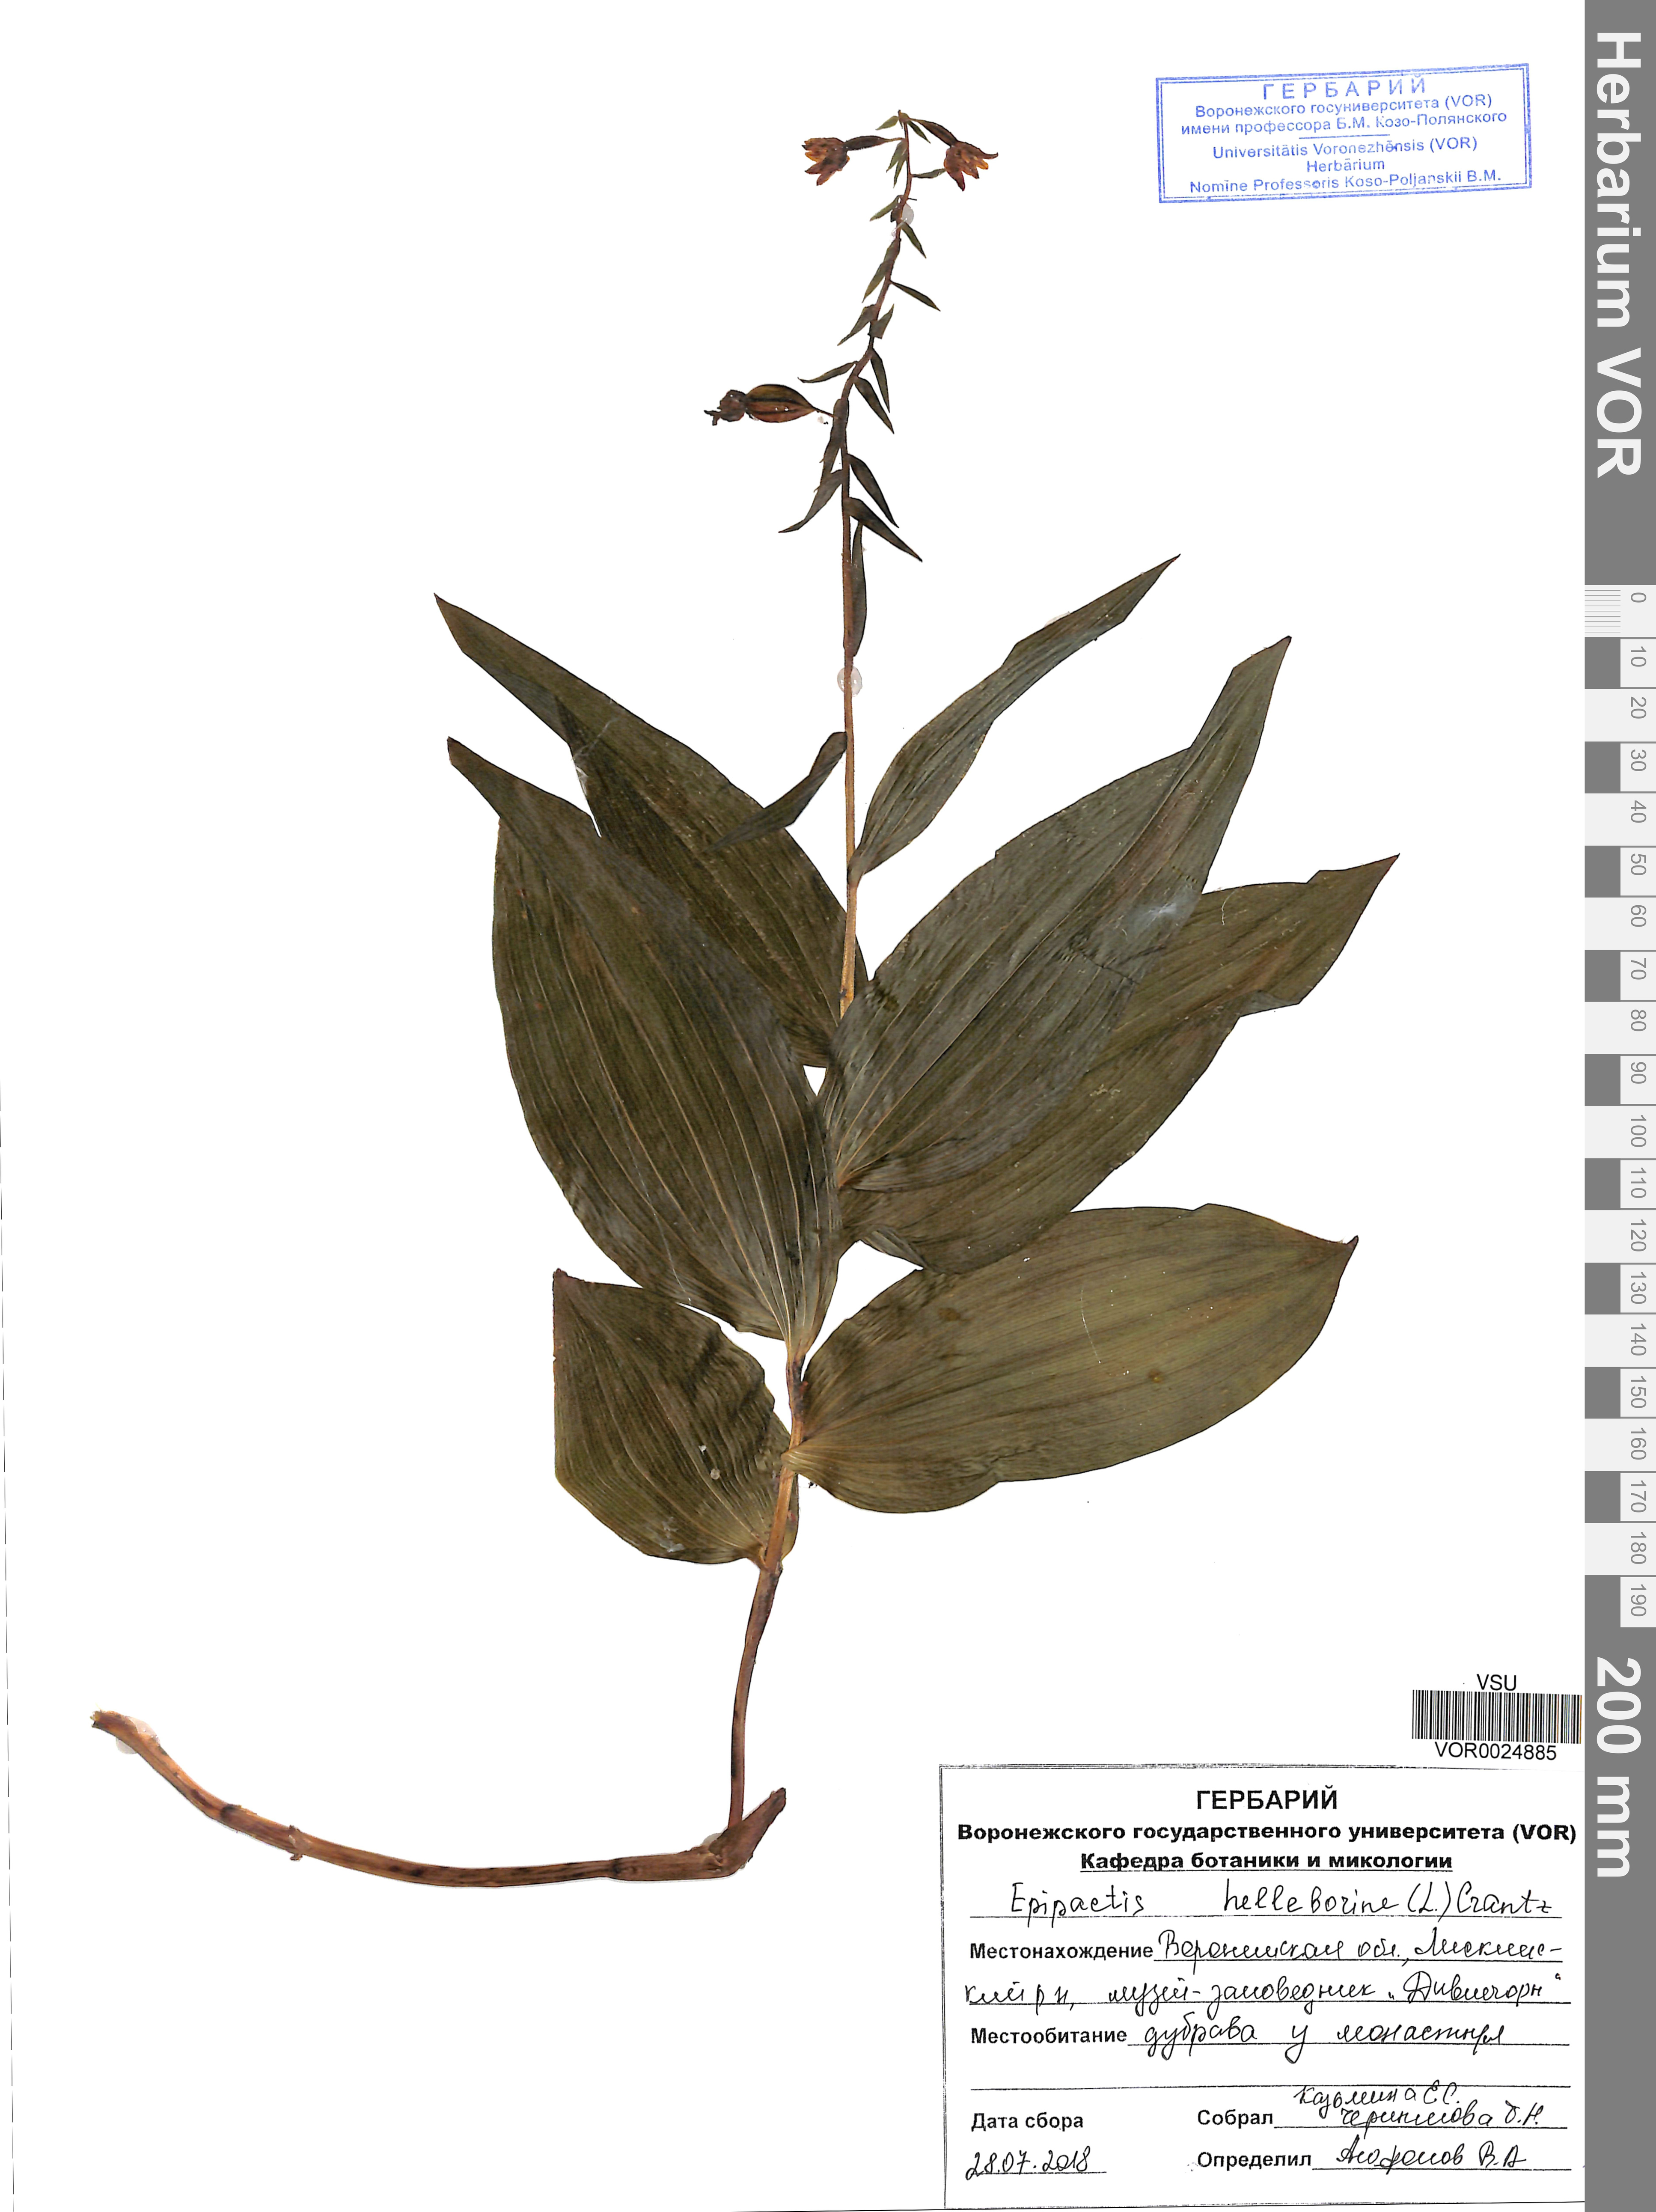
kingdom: Plantae
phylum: Tracheophyta
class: Liliopsida
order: Asparagales
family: Orchidaceae
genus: Epipactis
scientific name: Epipactis helleborine
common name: Broad-leaved helleborine
